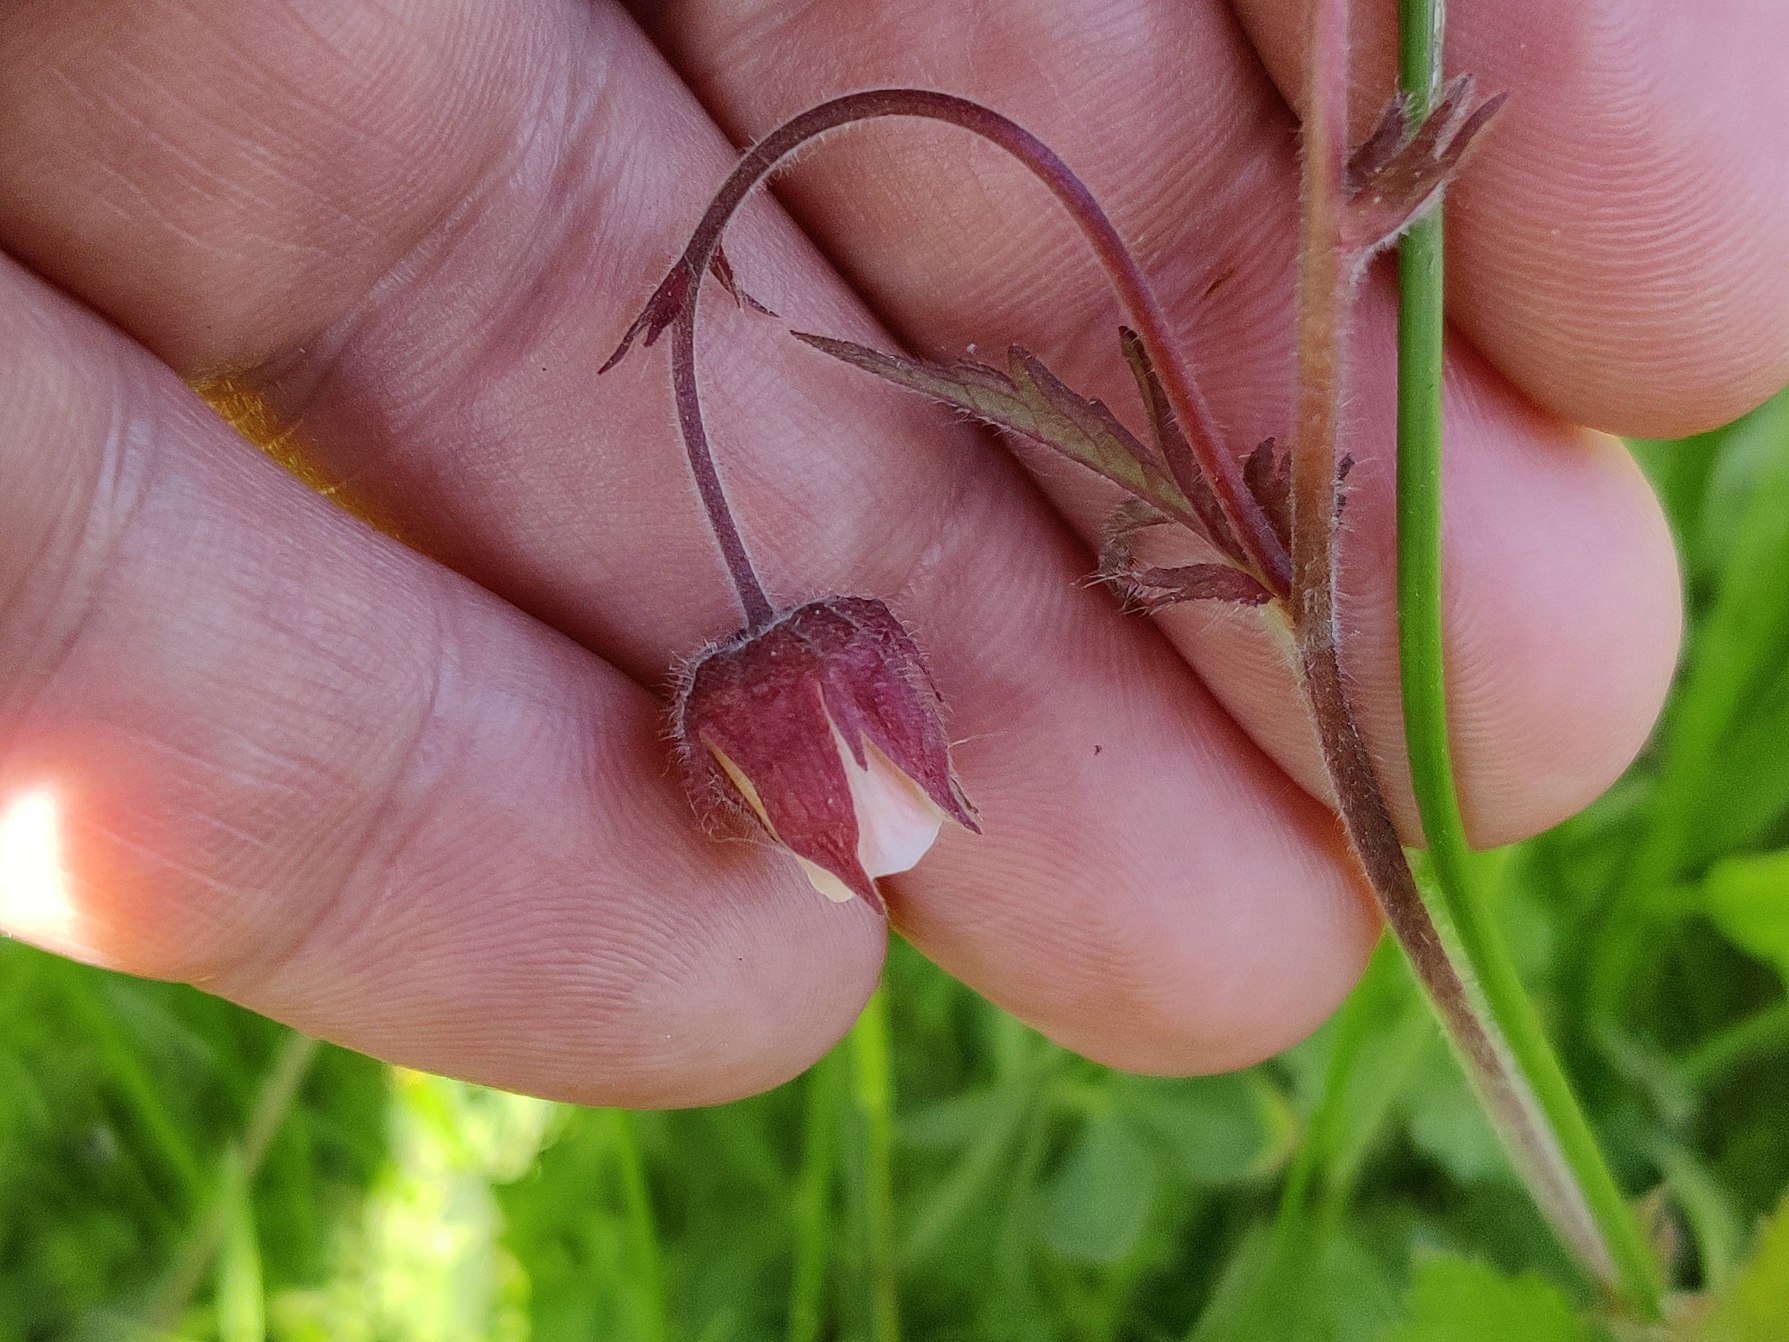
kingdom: Plantae
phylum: Tracheophyta
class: Magnoliopsida
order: Rosales
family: Rosaceae
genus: Geum
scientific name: Geum rivale
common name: Eng-nellikerod
